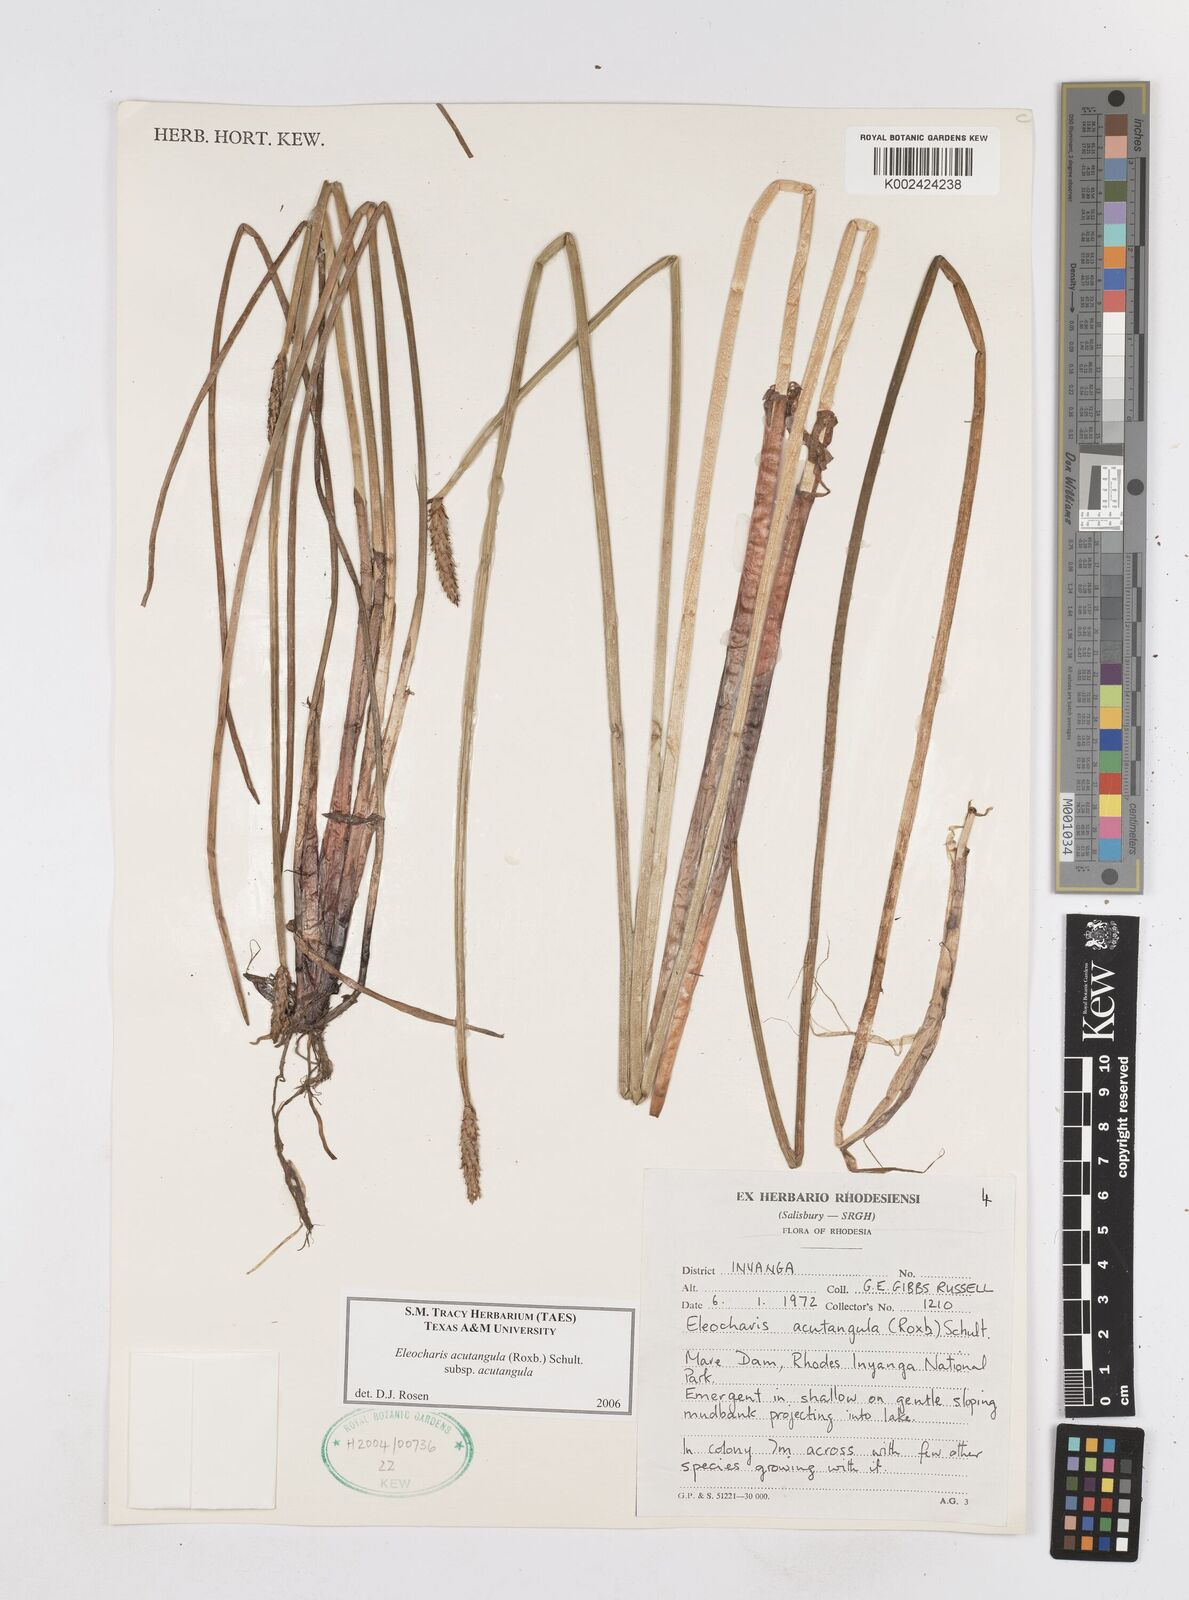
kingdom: Plantae
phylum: Tracheophyta
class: Liliopsida
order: Poales
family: Cyperaceae
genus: Eleocharis
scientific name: Eleocharis acutangula
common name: Acute spikerush
